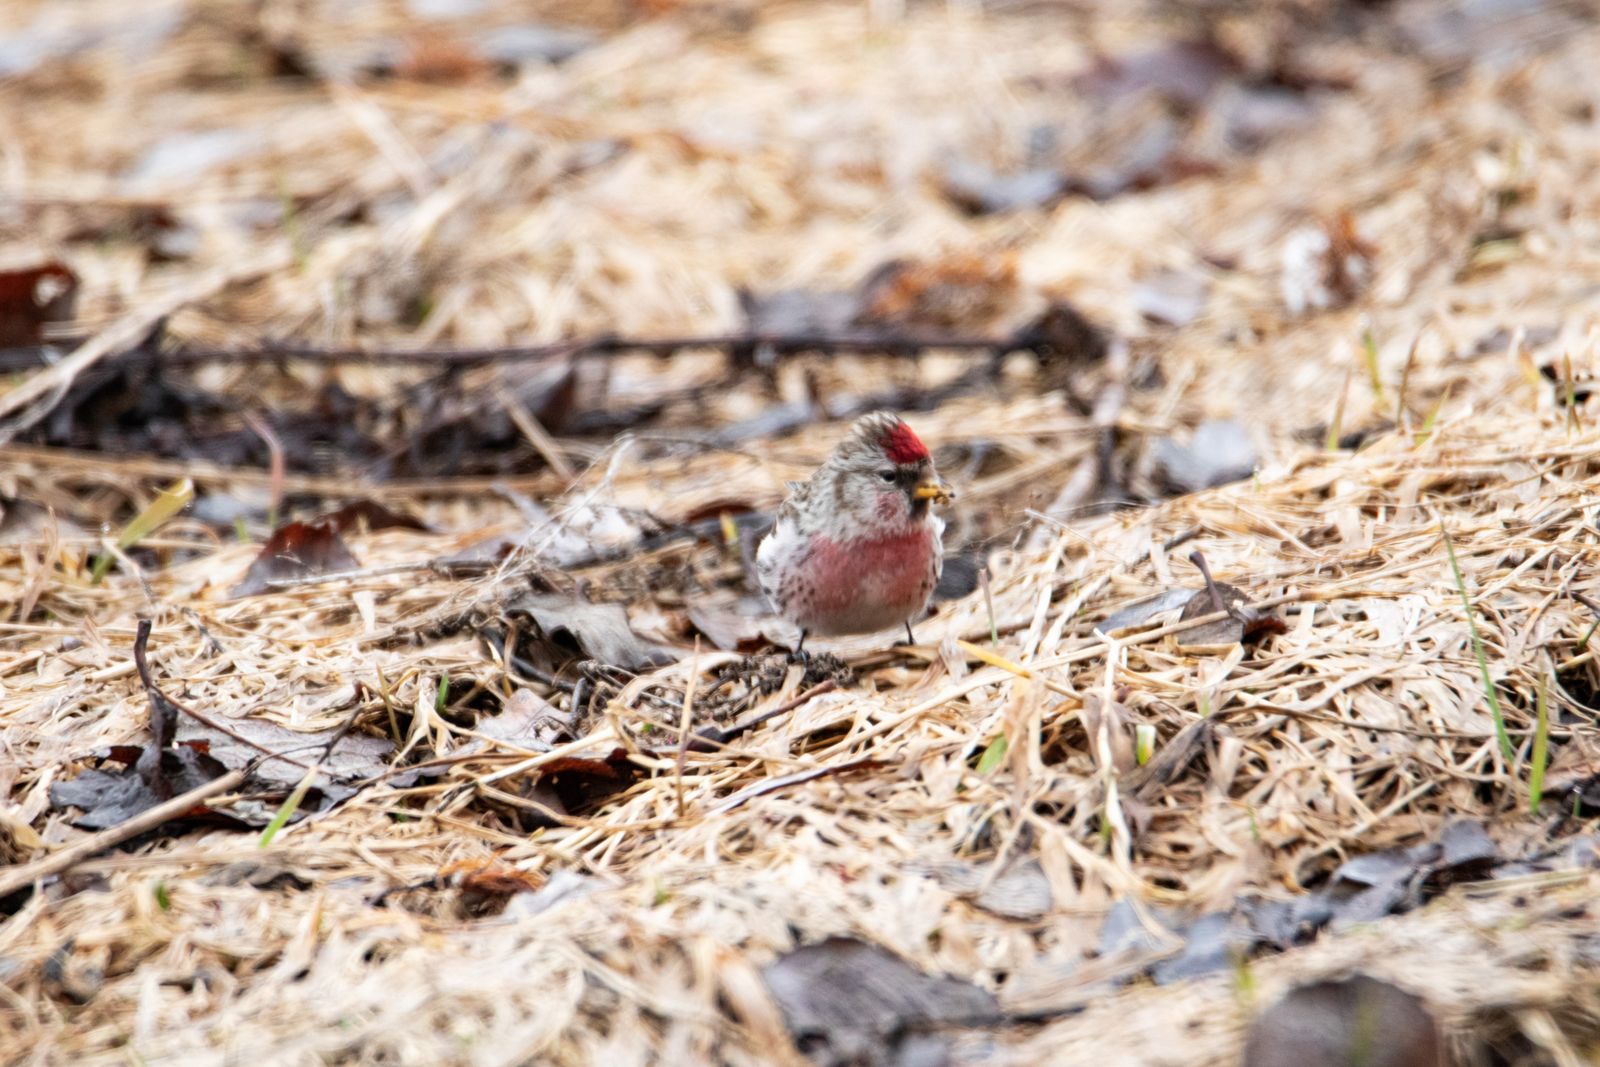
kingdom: Animalia
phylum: Chordata
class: Aves
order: Passeriformes
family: Fringillidae
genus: Acanthis
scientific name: Acanthis flammea
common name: Common redpoll
